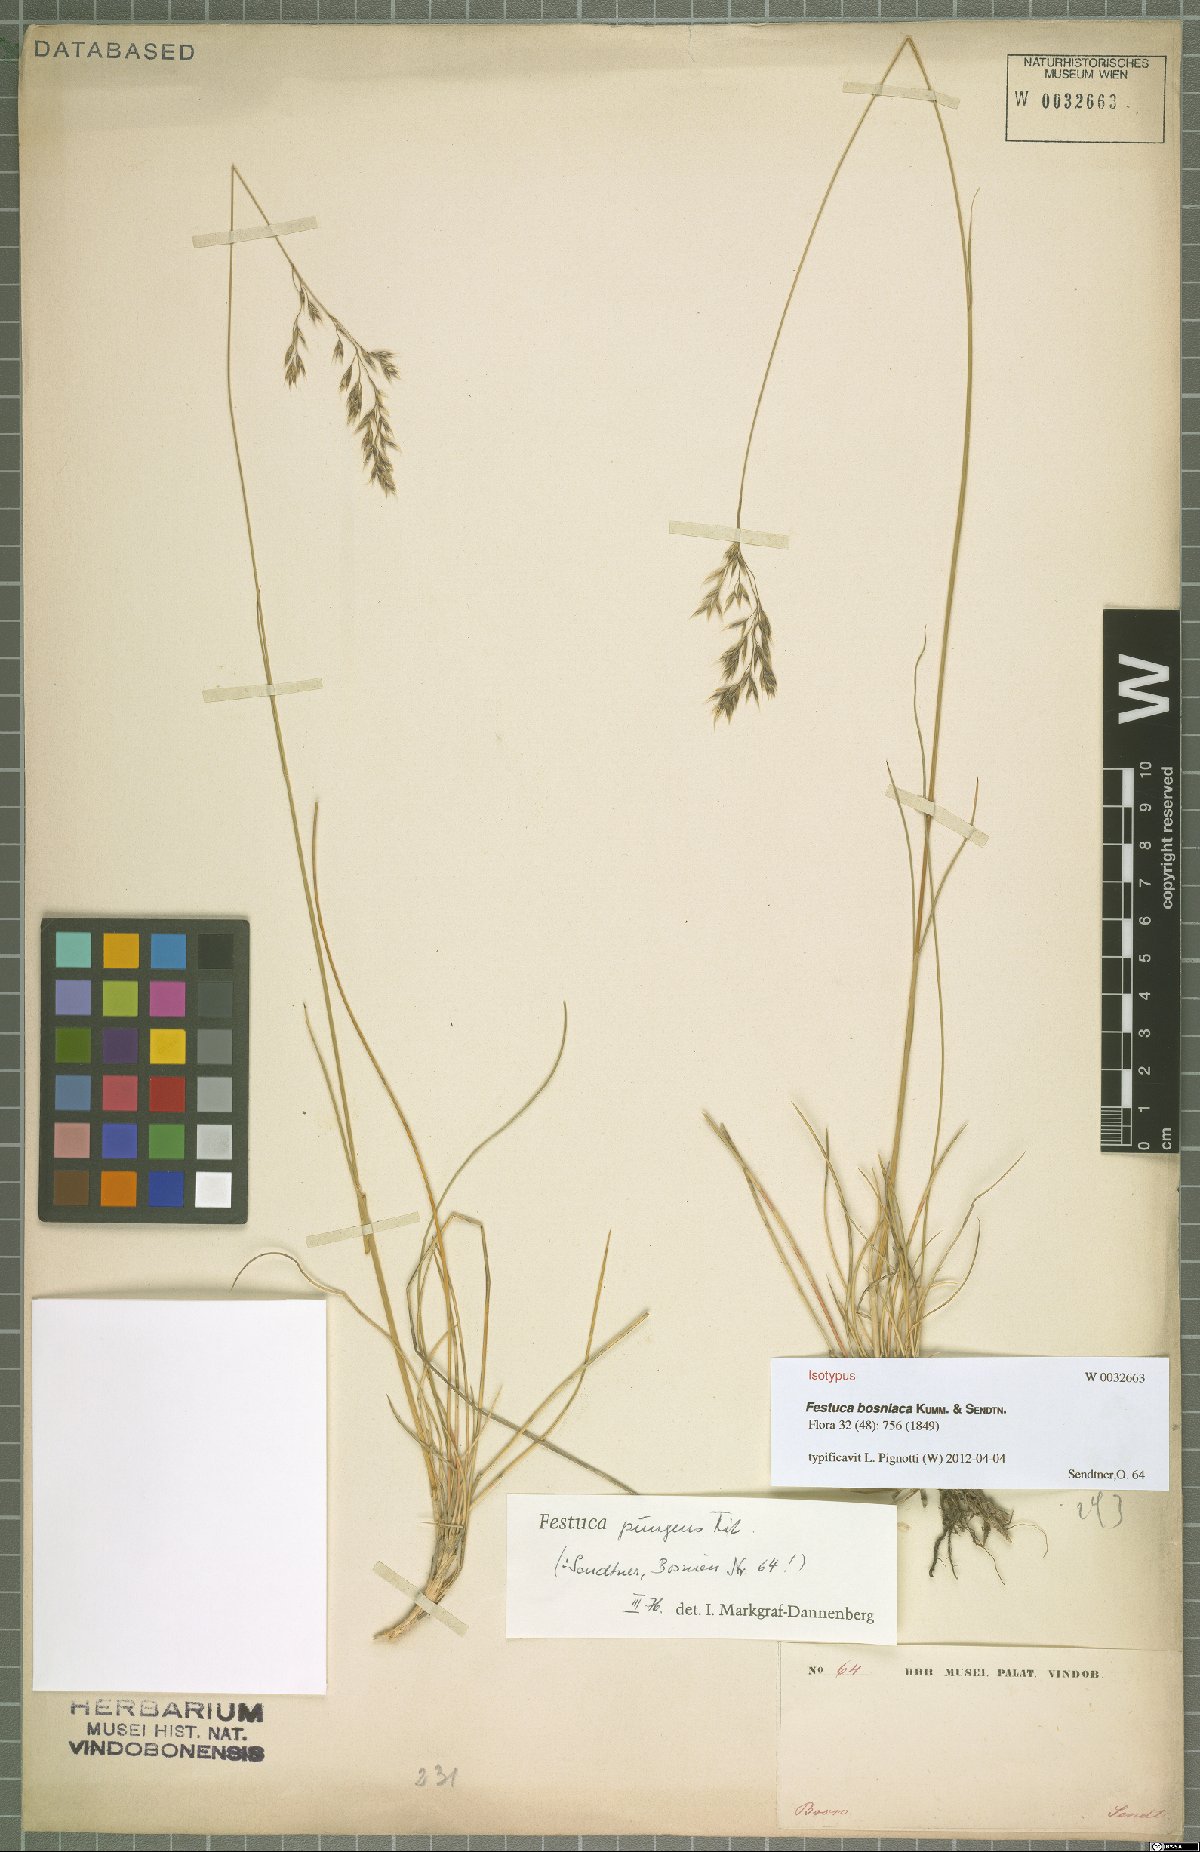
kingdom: Plantae
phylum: Tracheophyta
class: Liliopsida
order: Poales
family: Poaceae
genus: Festuca
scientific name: Festuca bosniaca
